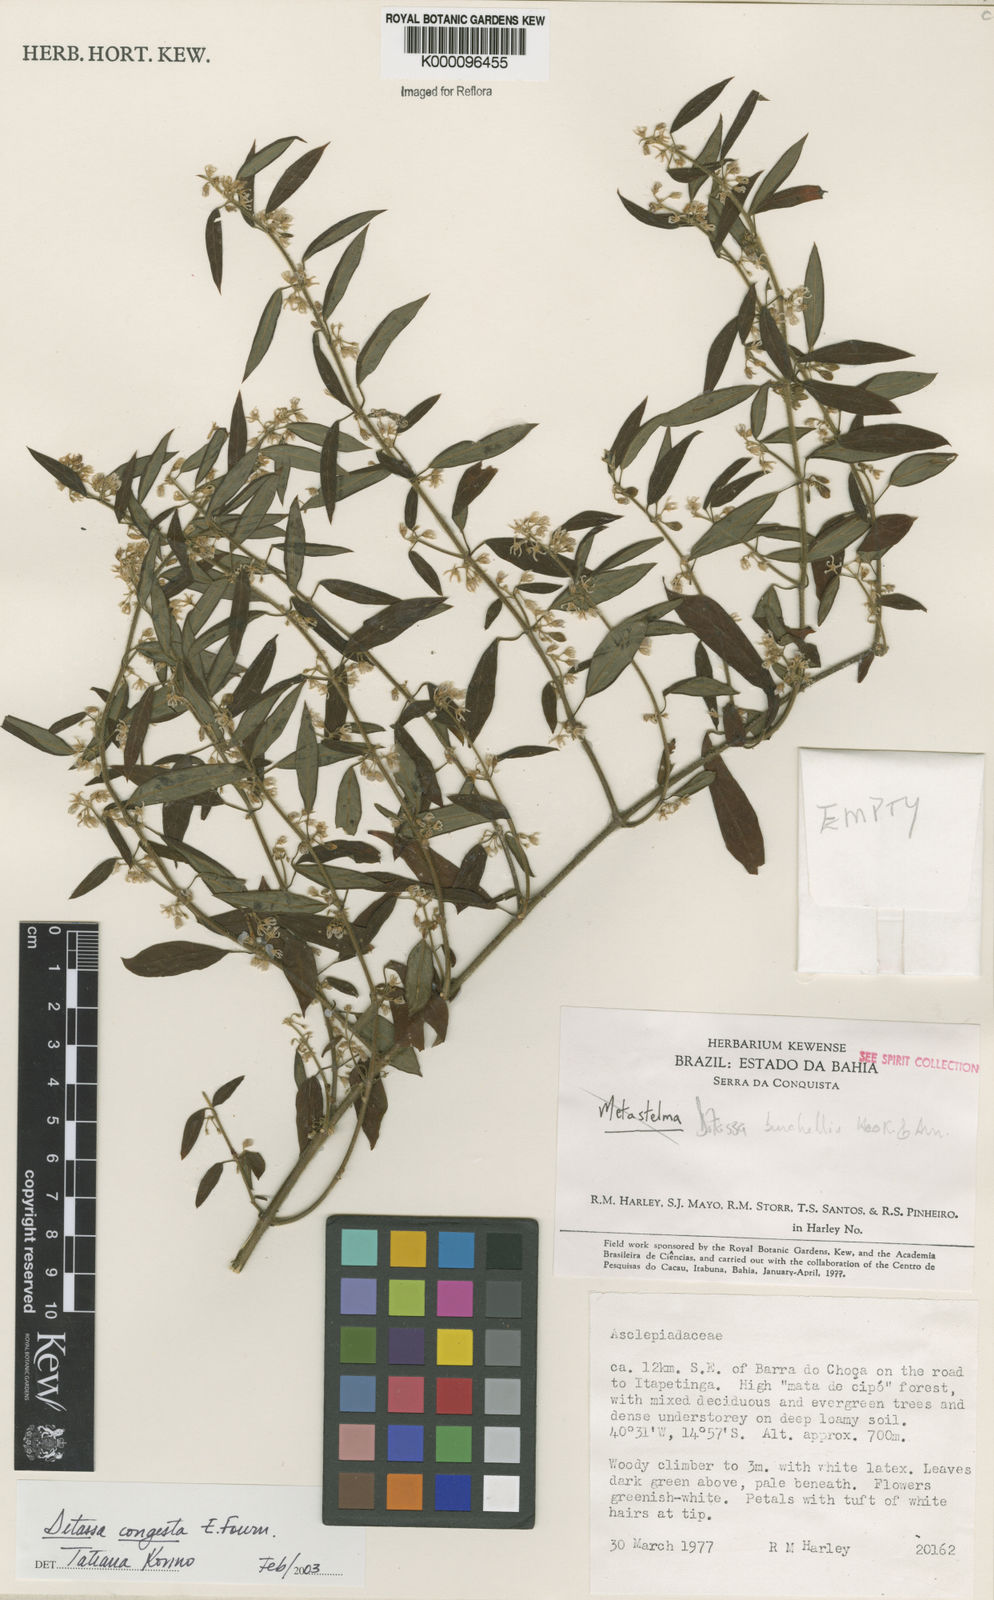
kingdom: Plantae
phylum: Tracheophyta
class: Magnoliopsida
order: Gentianales
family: Apocynaceae
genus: Ditassa
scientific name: Ditassa congesta
